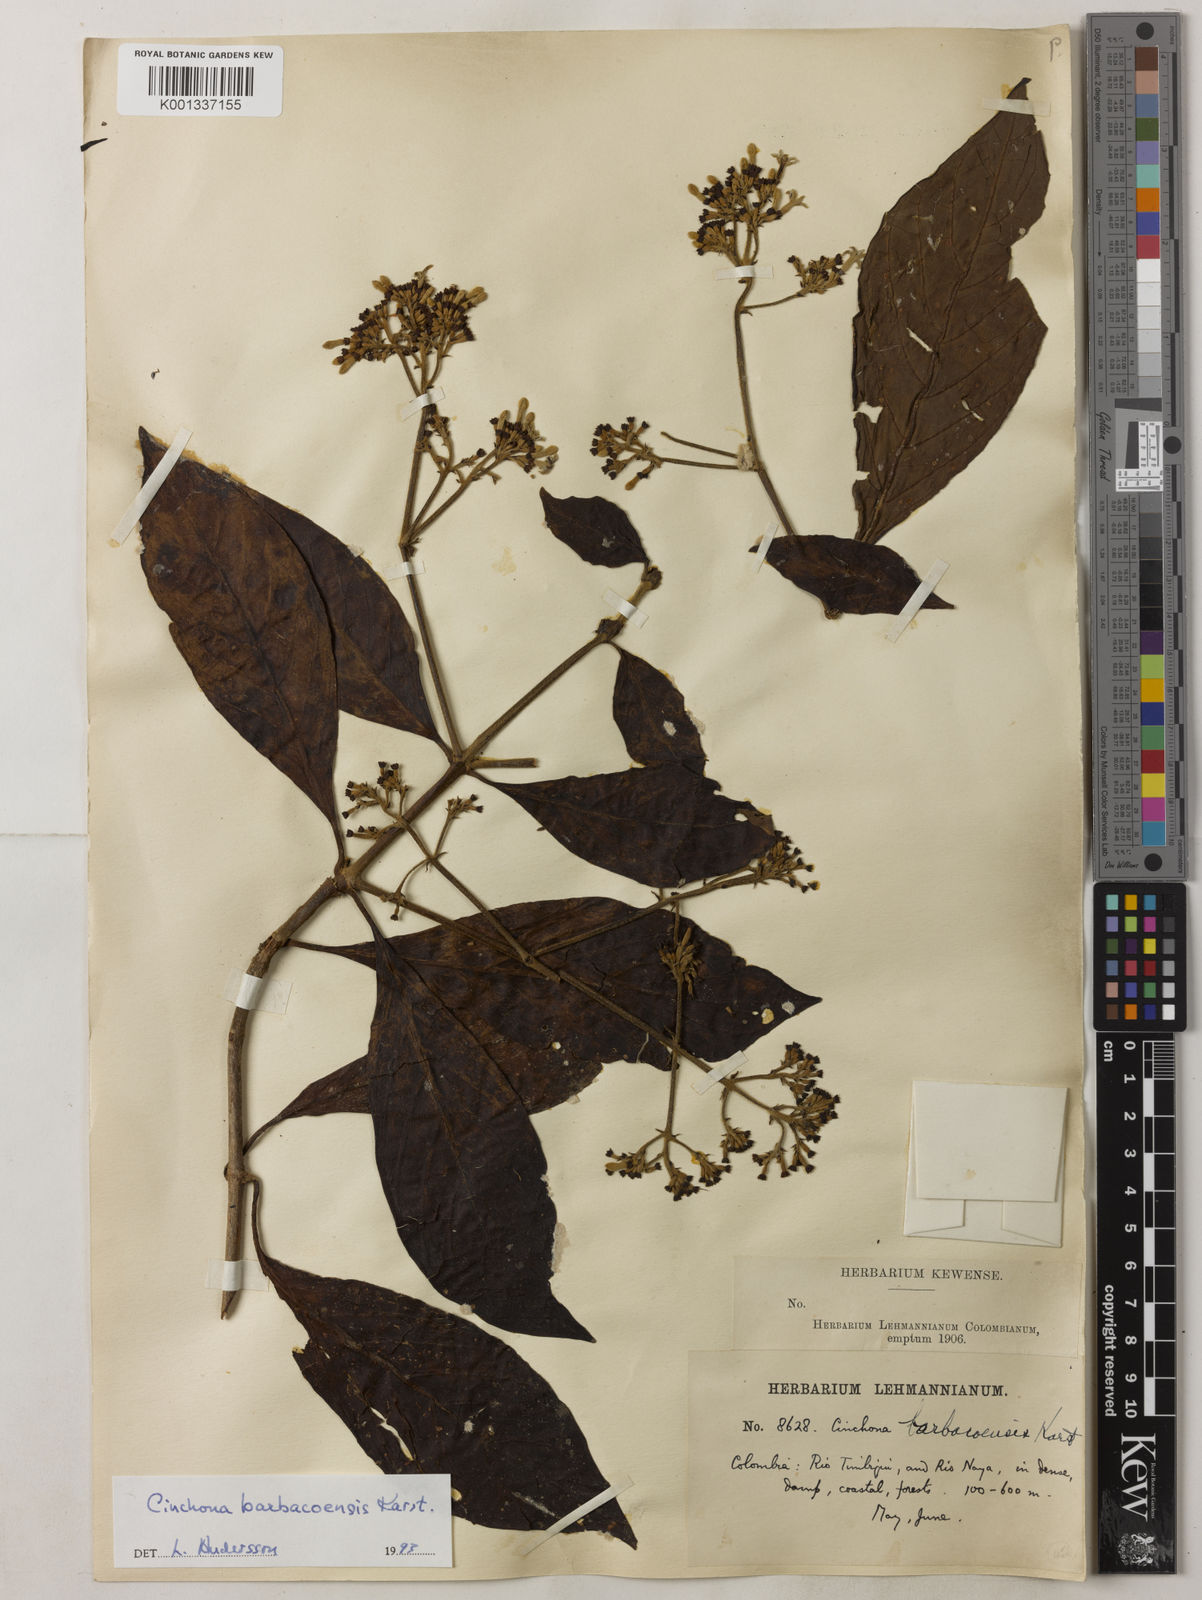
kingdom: Plantae
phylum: Tracheophyta
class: Magnoliopsida
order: Gentianales
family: Rubiaceae
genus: Cinchona
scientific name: Cinchona barbacoensis
